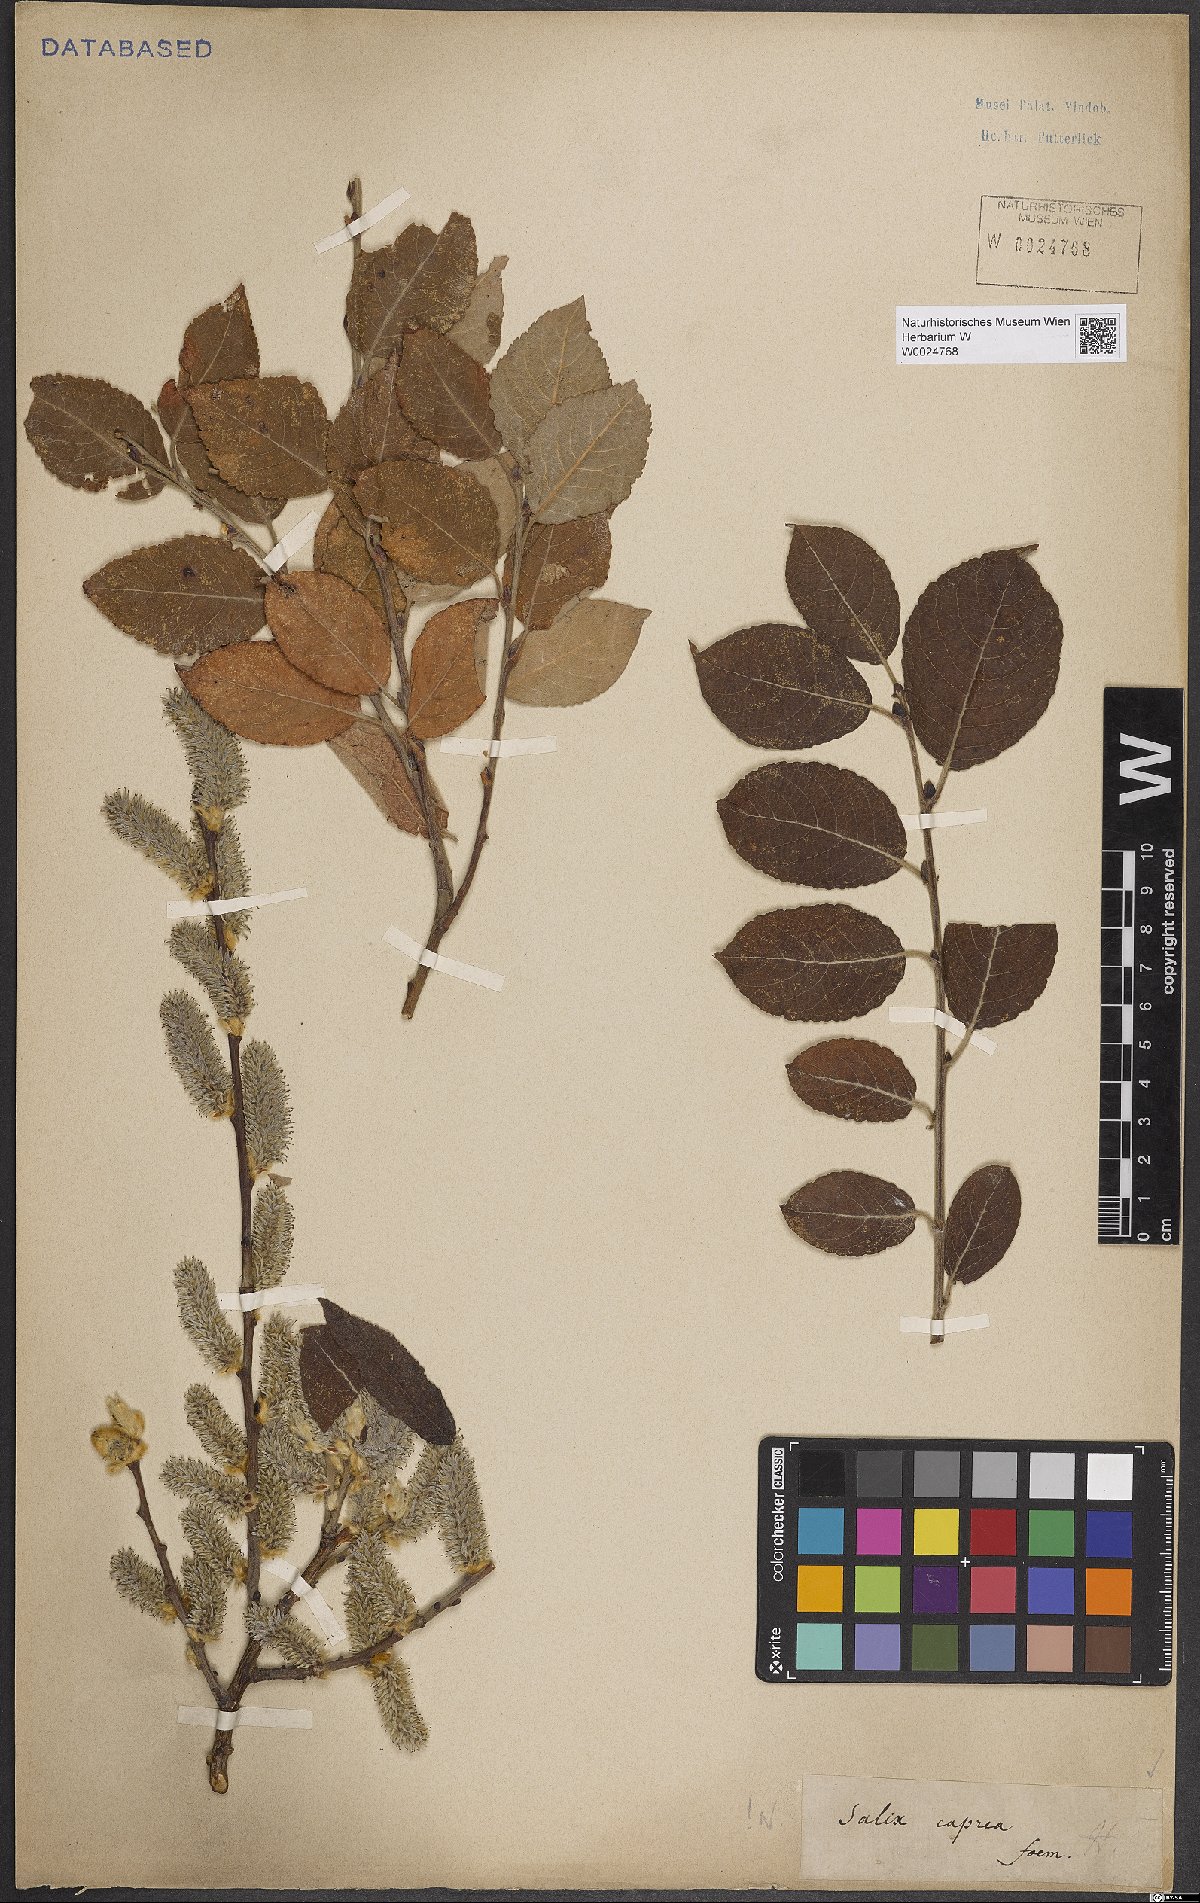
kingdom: Plantae
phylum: Tracheophyta
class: Magnoliopsida
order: Malpighiales
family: Salicaceae
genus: Salix
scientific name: Salix caprea
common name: Goat willow
